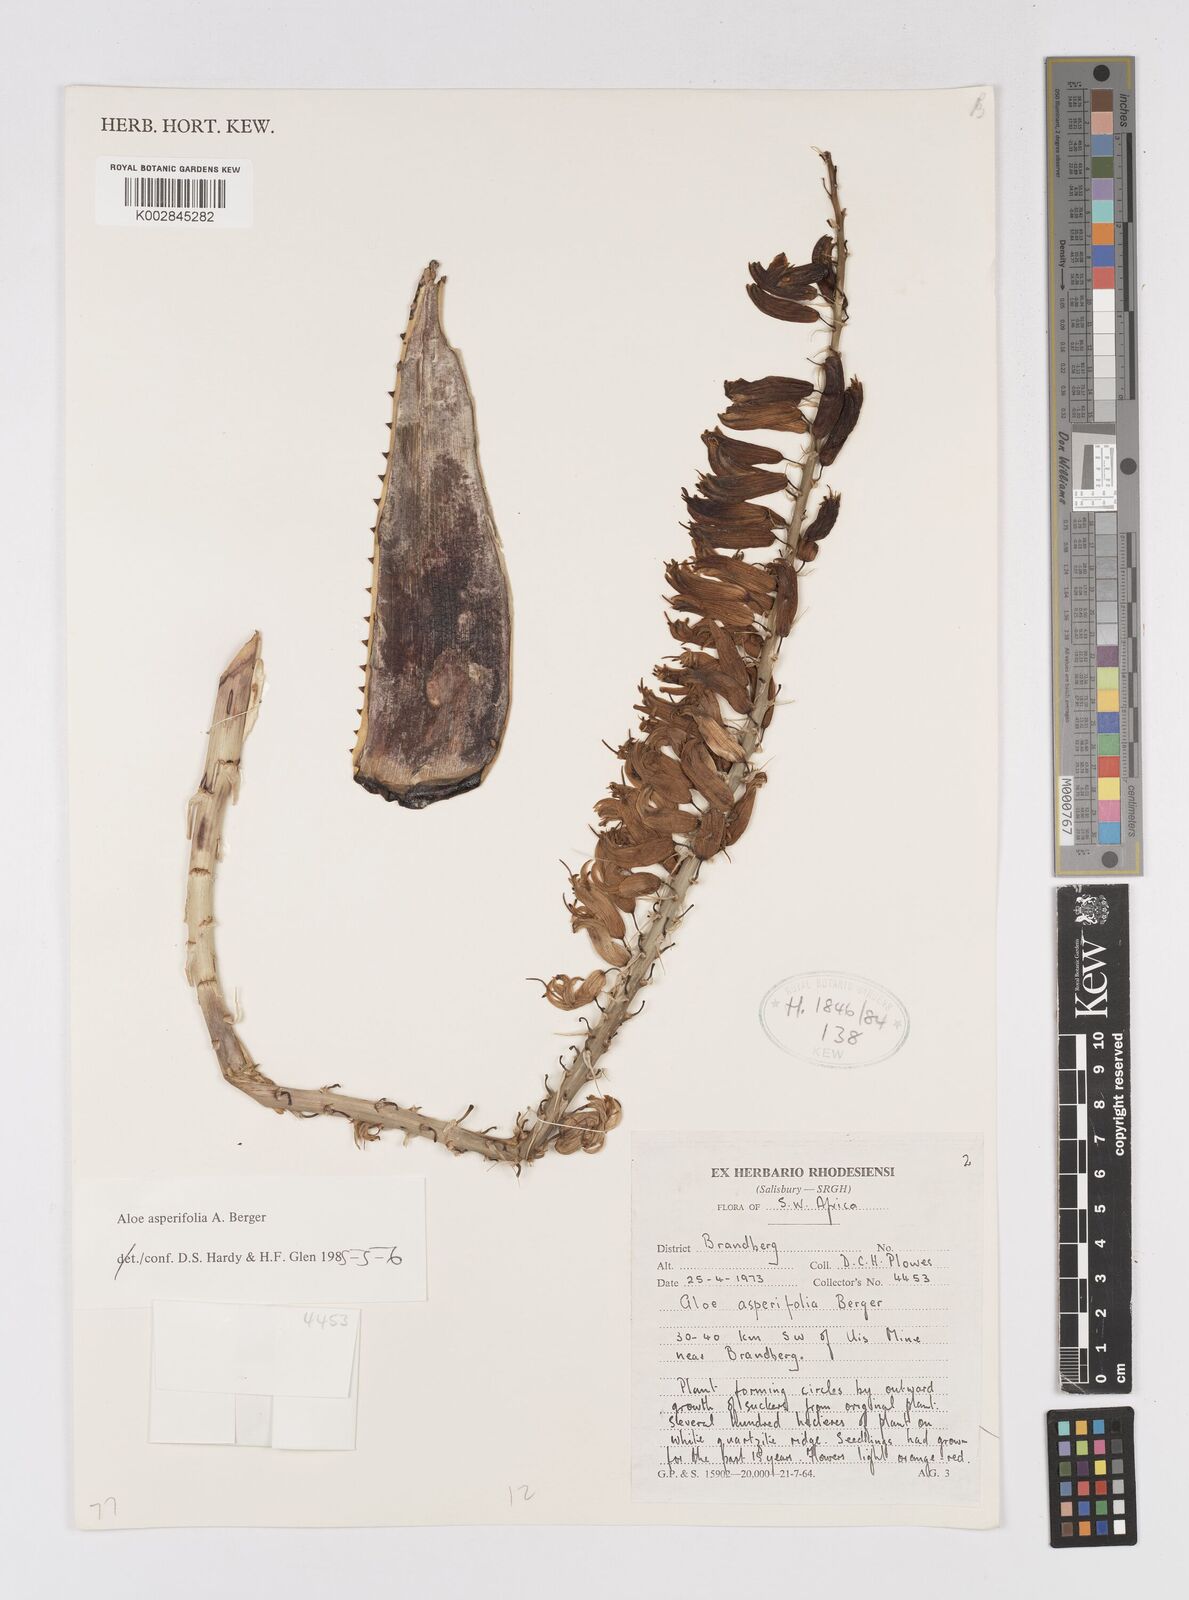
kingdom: Plantae
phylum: Tracheophyta
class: Liliopsida
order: Asparagales
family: Asphodelaceae
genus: Aloe
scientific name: Aloe asperifolia
